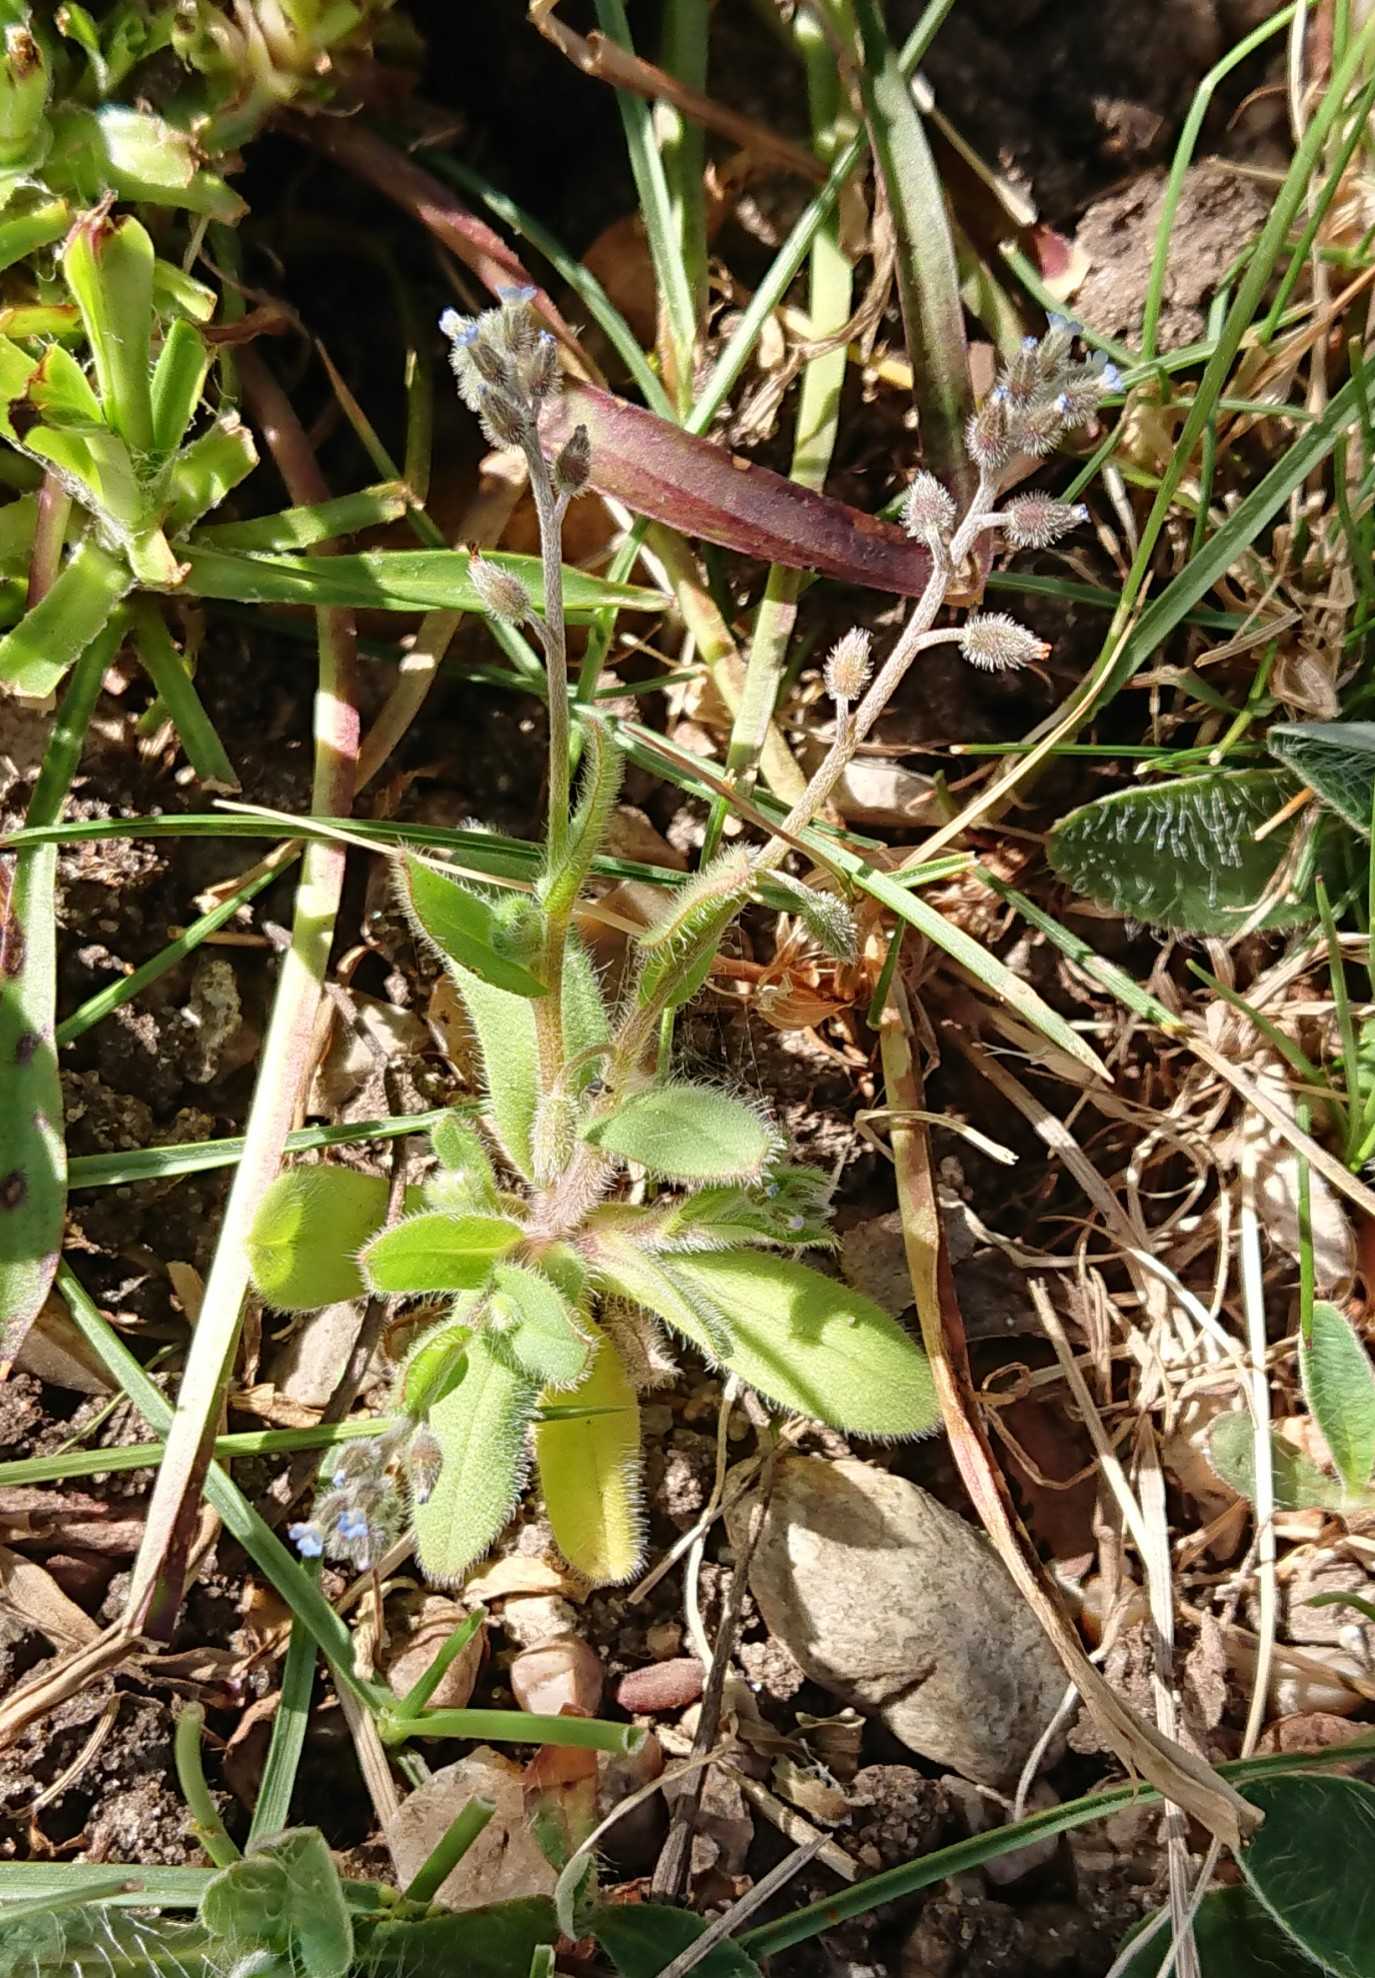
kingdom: Plantae
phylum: Tracheophyta
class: Magnoliopsida
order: Boraginales
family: Boraginaceae
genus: Myosotis
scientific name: Myosotis ramosissima
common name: Bakke-forglemmigej
